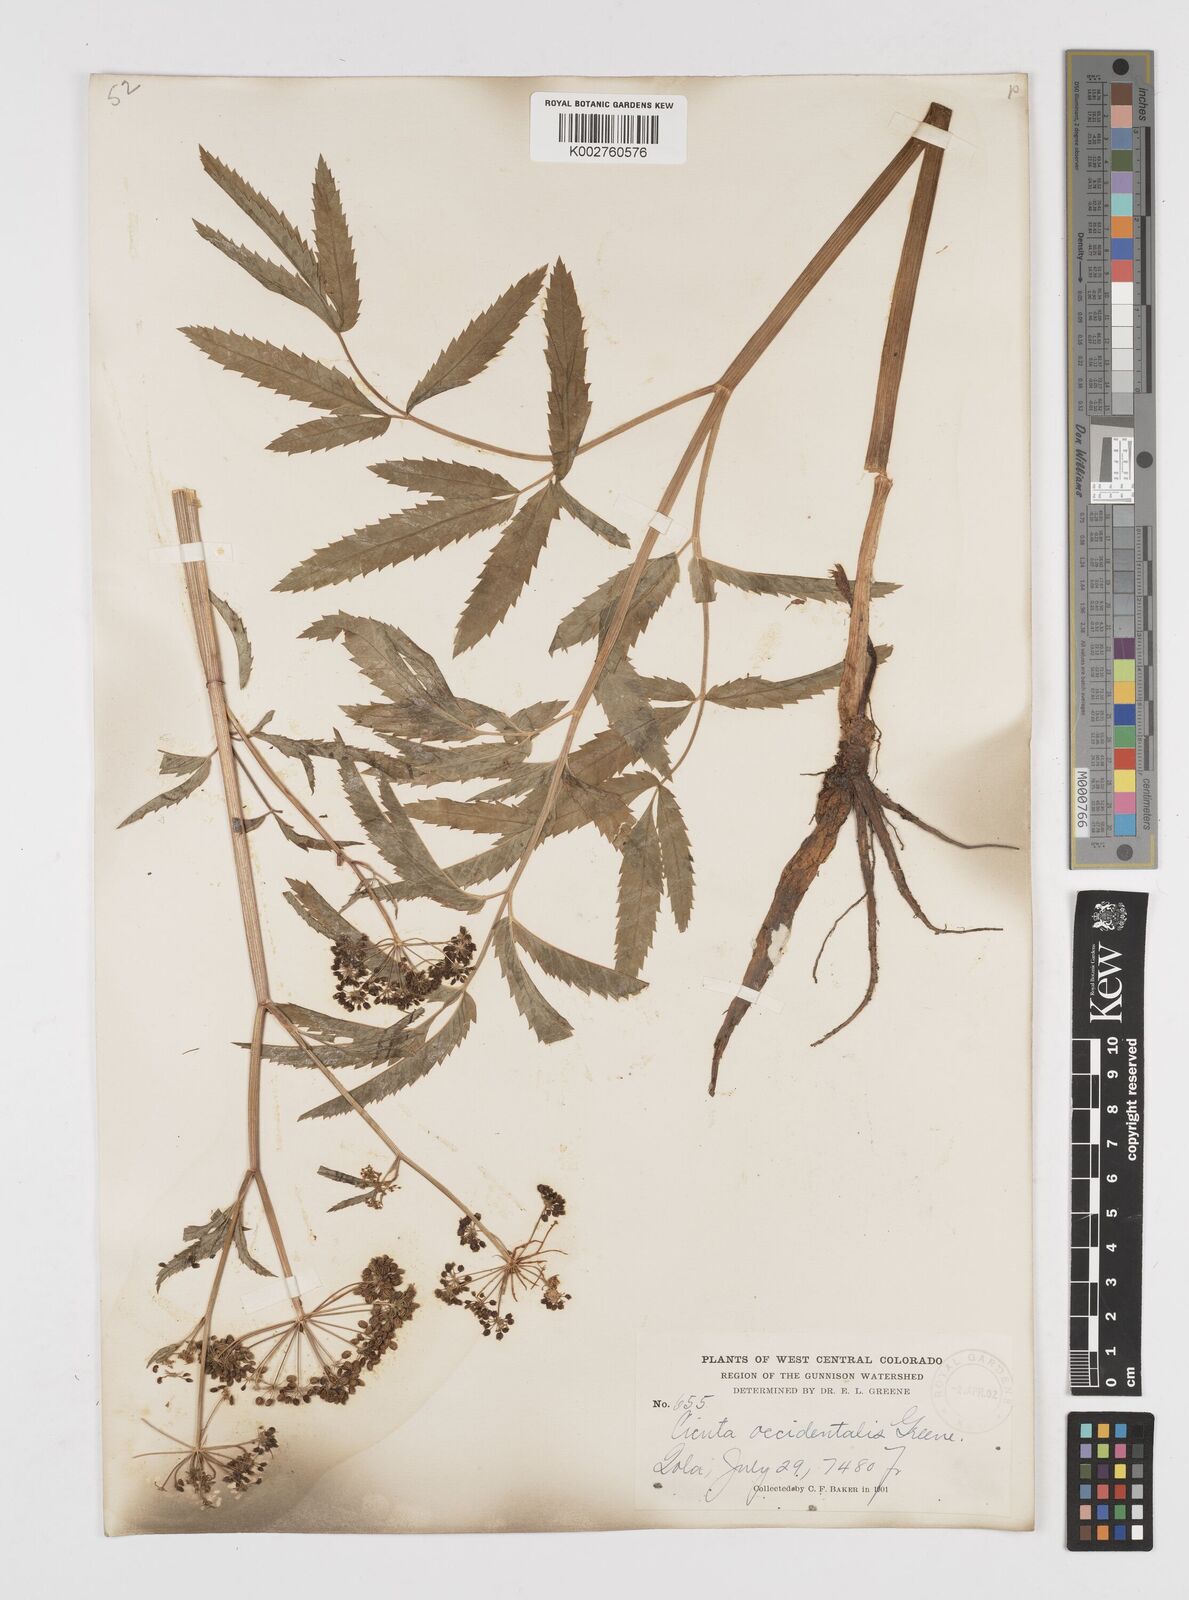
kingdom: Plantae
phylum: Tracheophyta
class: Magnoliopsida
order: Apiales
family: Apiaceae
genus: Cicuta
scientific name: Cicuta douglasii
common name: Western water-hemlock
